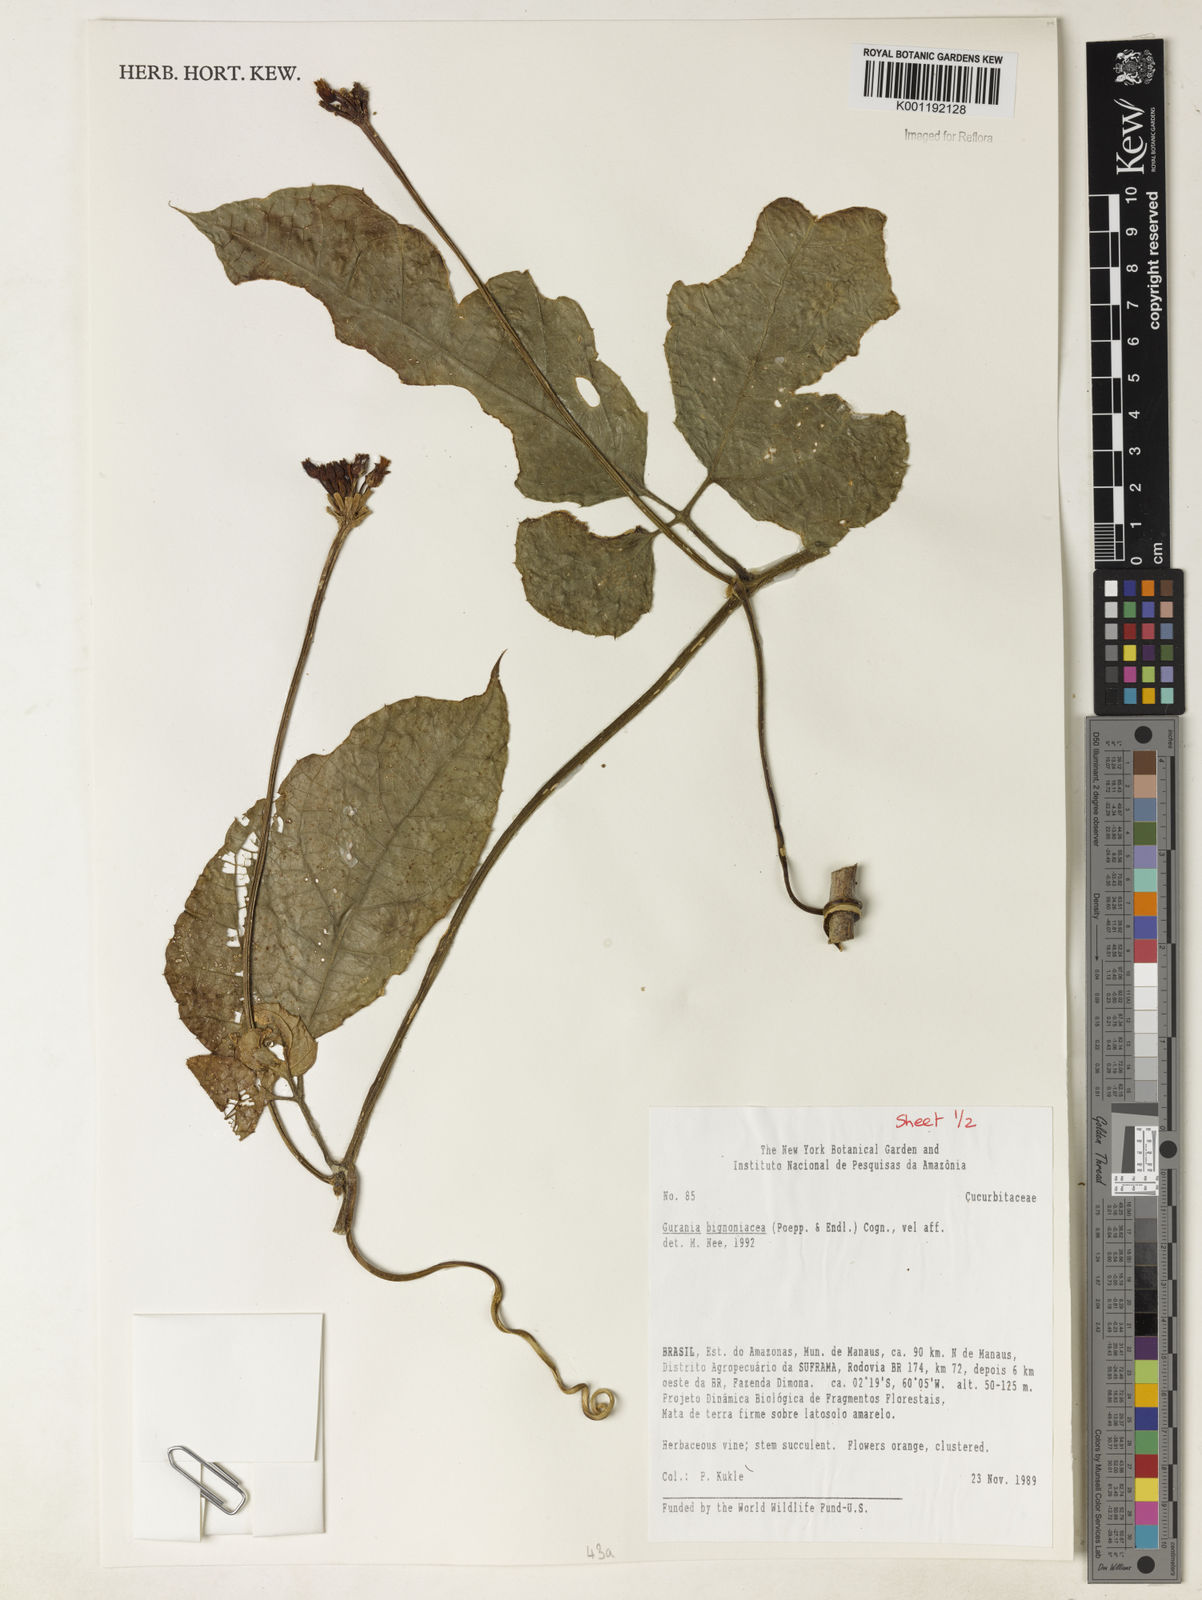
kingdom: Plantae
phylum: Tracheophyta
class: Magnoliopsida
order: Cucurbitales
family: Cucurbitaceae
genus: Gurania
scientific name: Gurania bignoniacea
